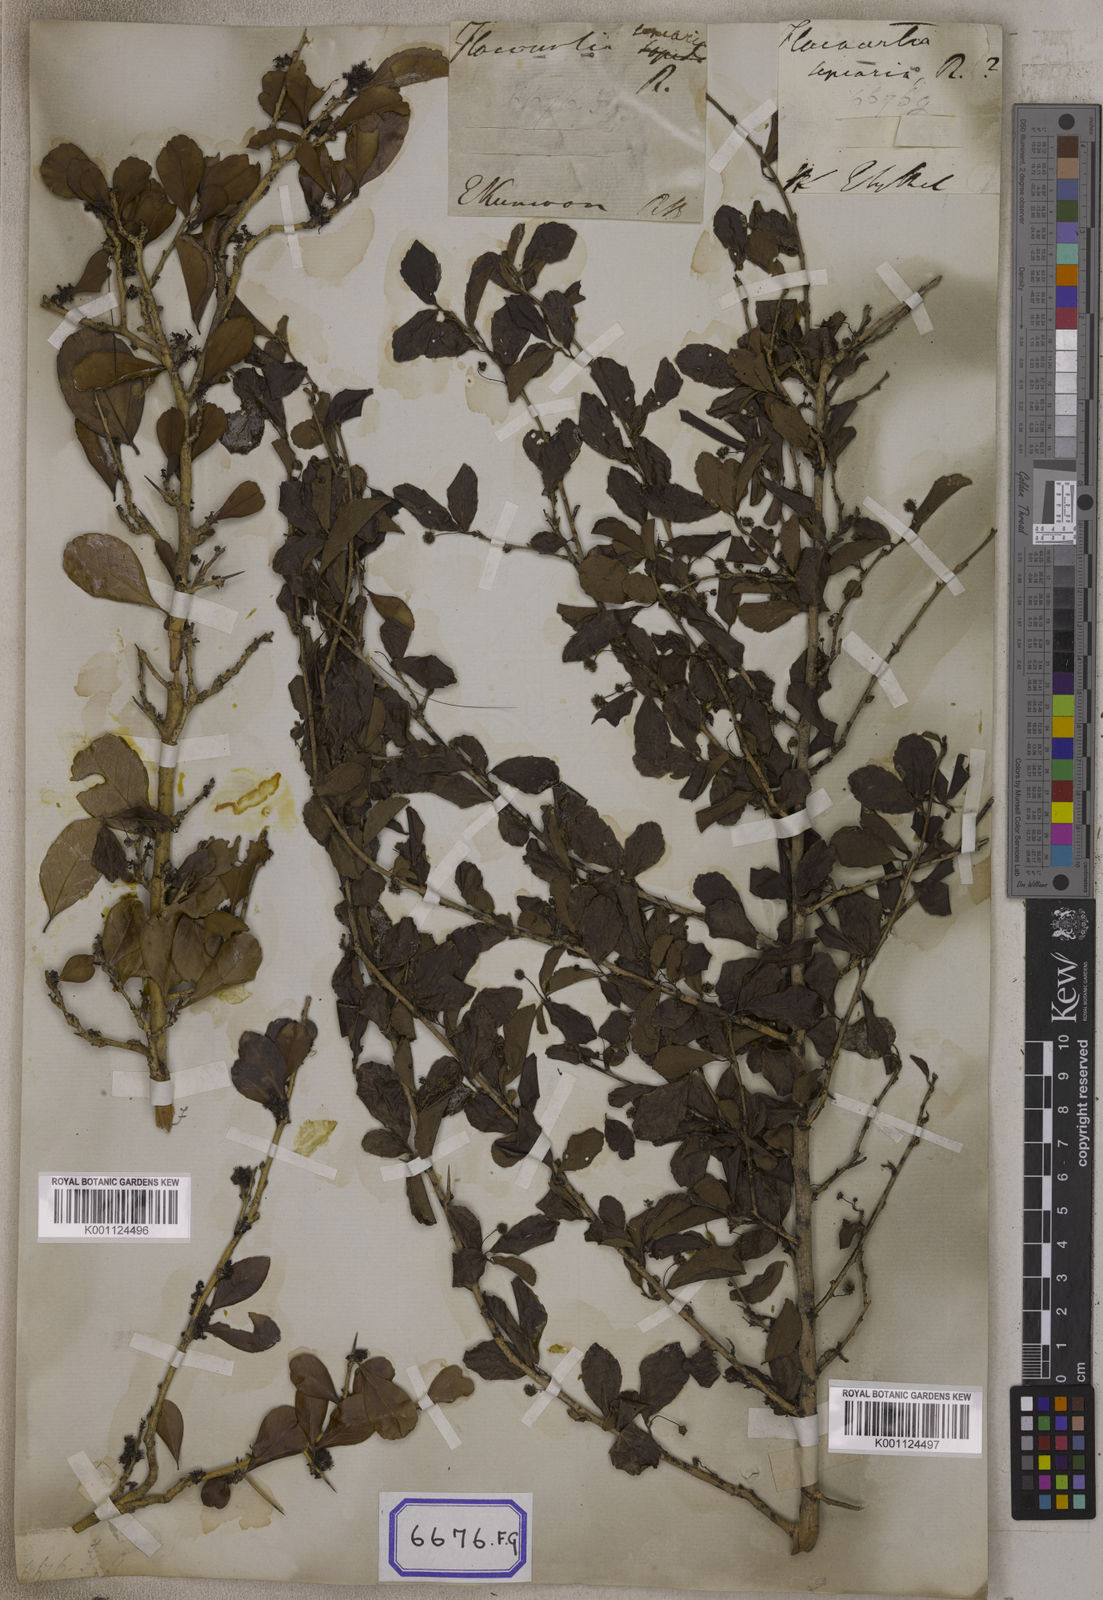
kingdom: Plantae
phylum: Tracheophyta
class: Magnoliopsida
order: Malpighiales
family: Salicaceae
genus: Flacourtia
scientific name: Flacourtia indica
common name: Governor's plum
